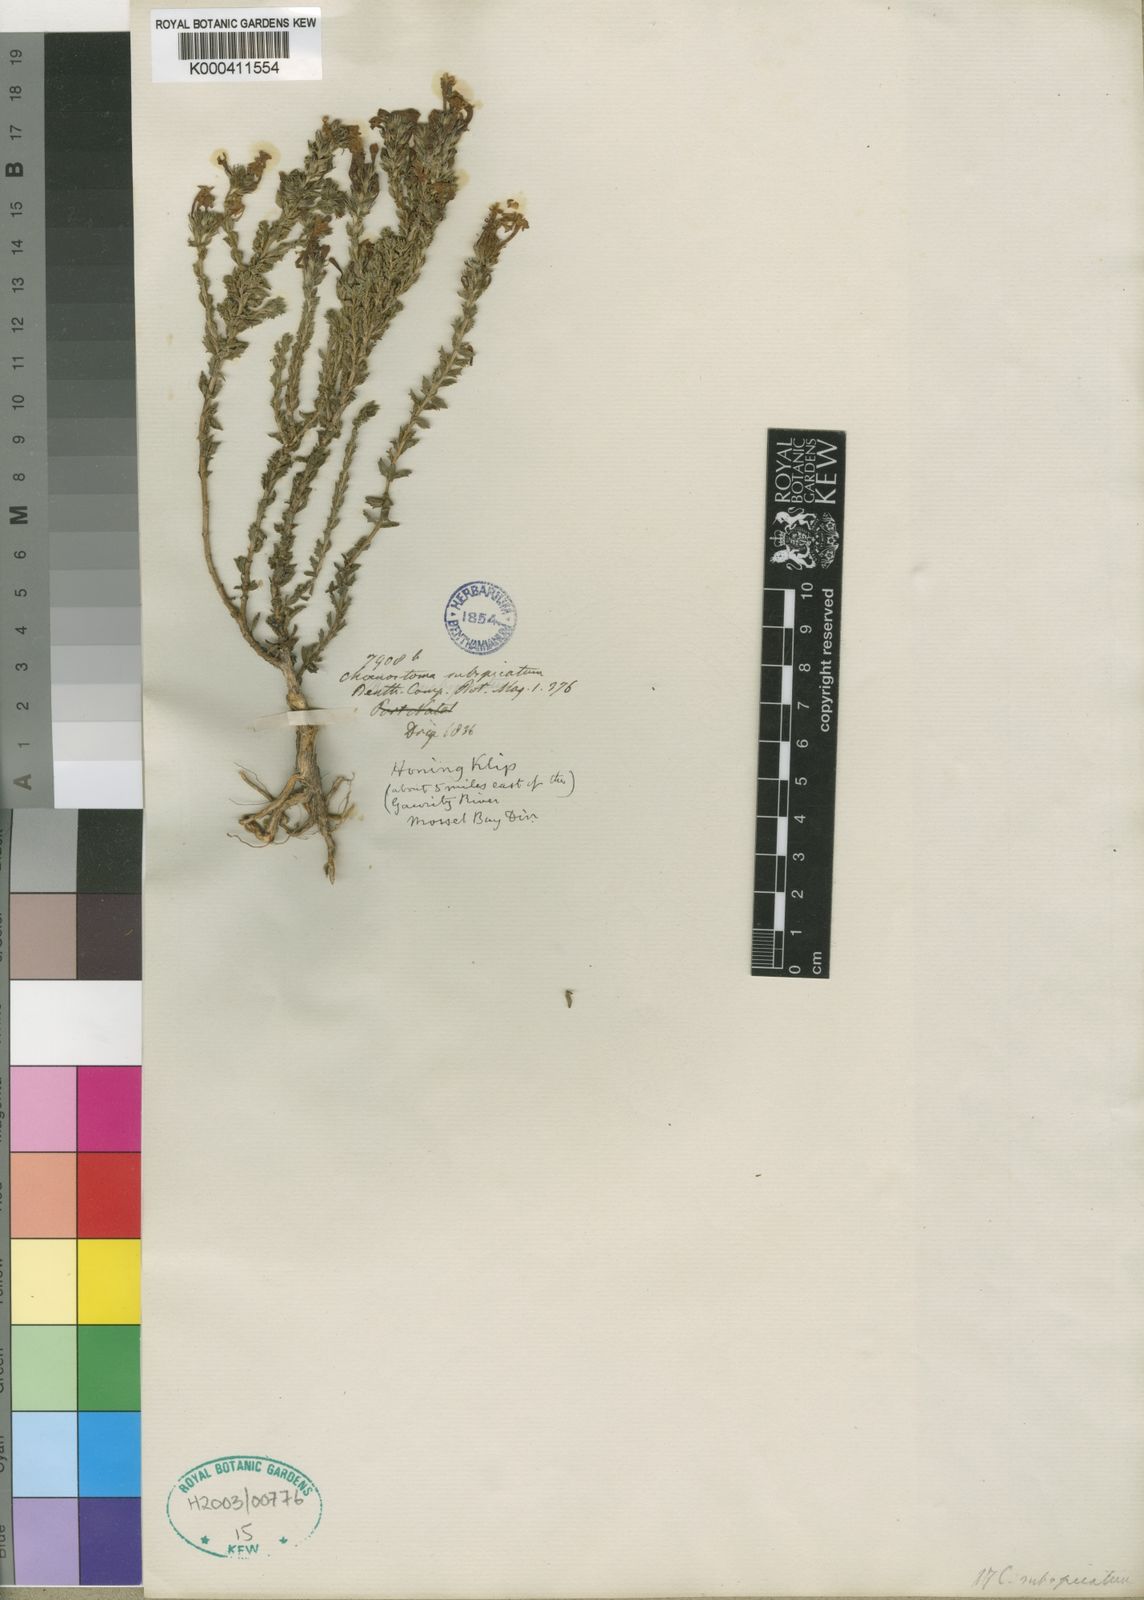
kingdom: Plantae
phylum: Tracheophyta
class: Magnoliopsida
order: Lamiales
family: Scrophulariaceae
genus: Chaenostoma
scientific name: Chaenostoma subspicata
